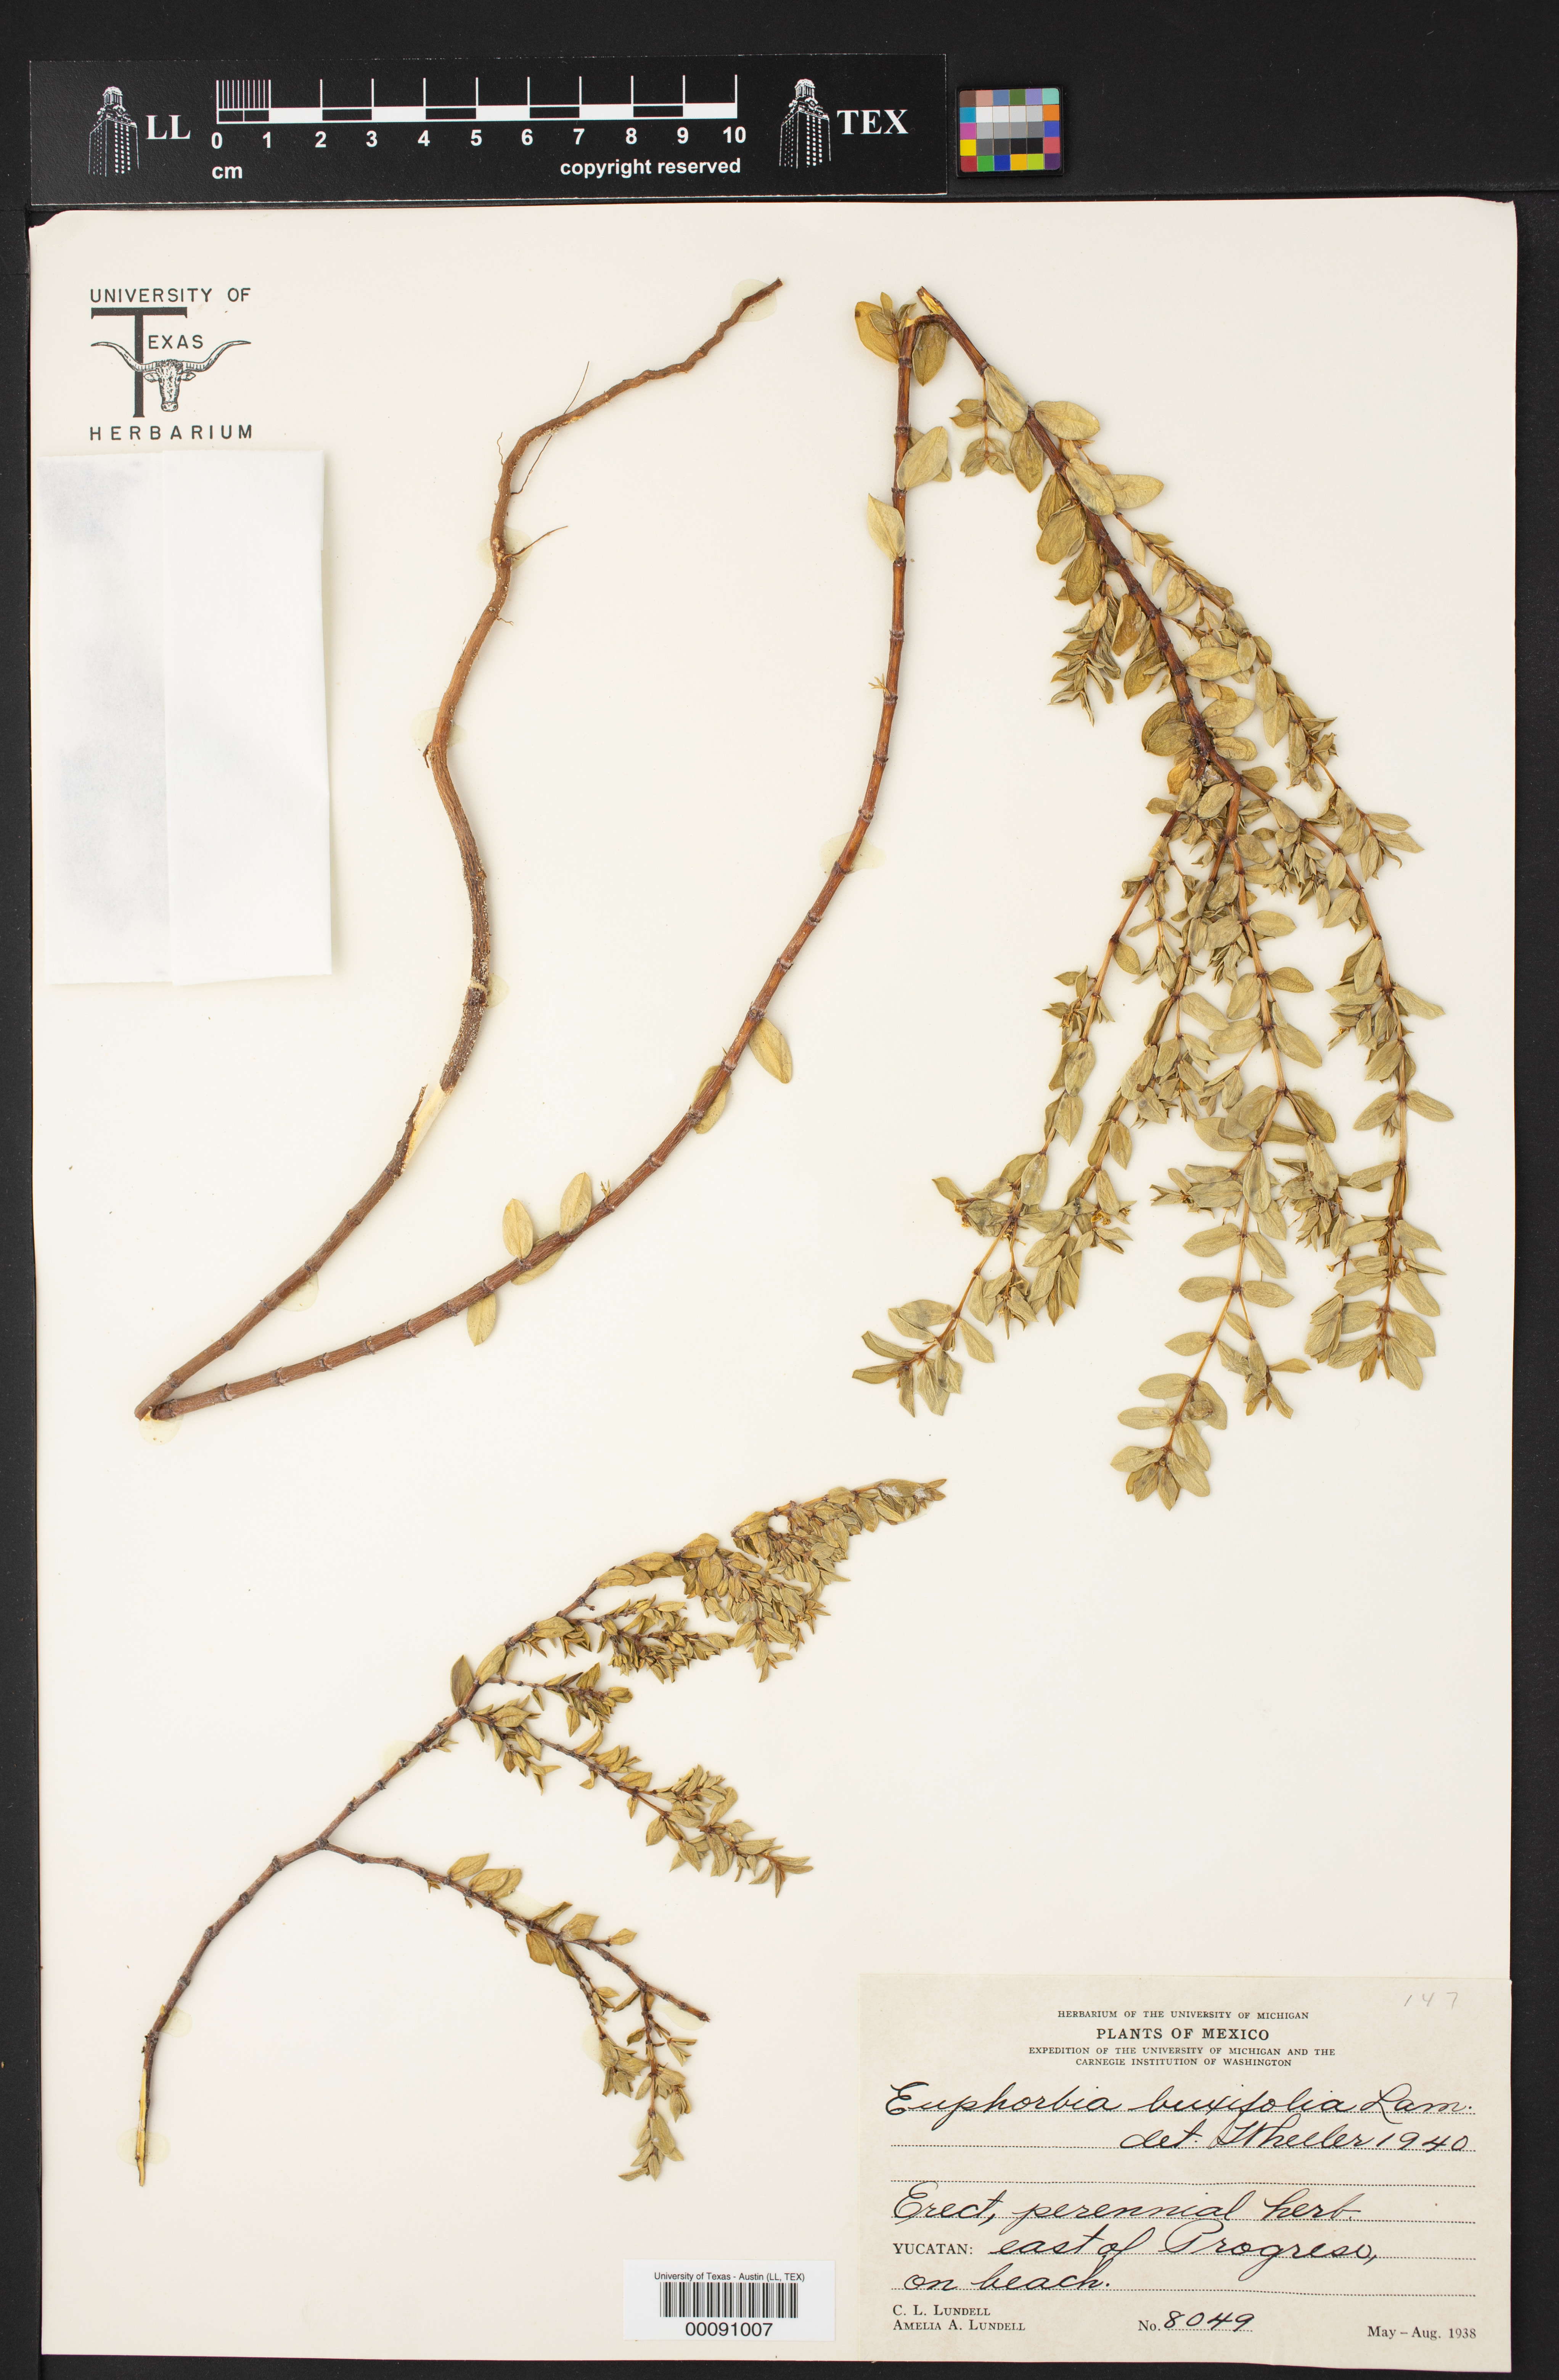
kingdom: Plantae
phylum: Tracheophyta
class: Magnoliopsida
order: Malpighiales
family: Euphorbiaceae
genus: Euphorbia
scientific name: Euphorbia mesembryanthemifolia
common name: Coastal beach sandmat
